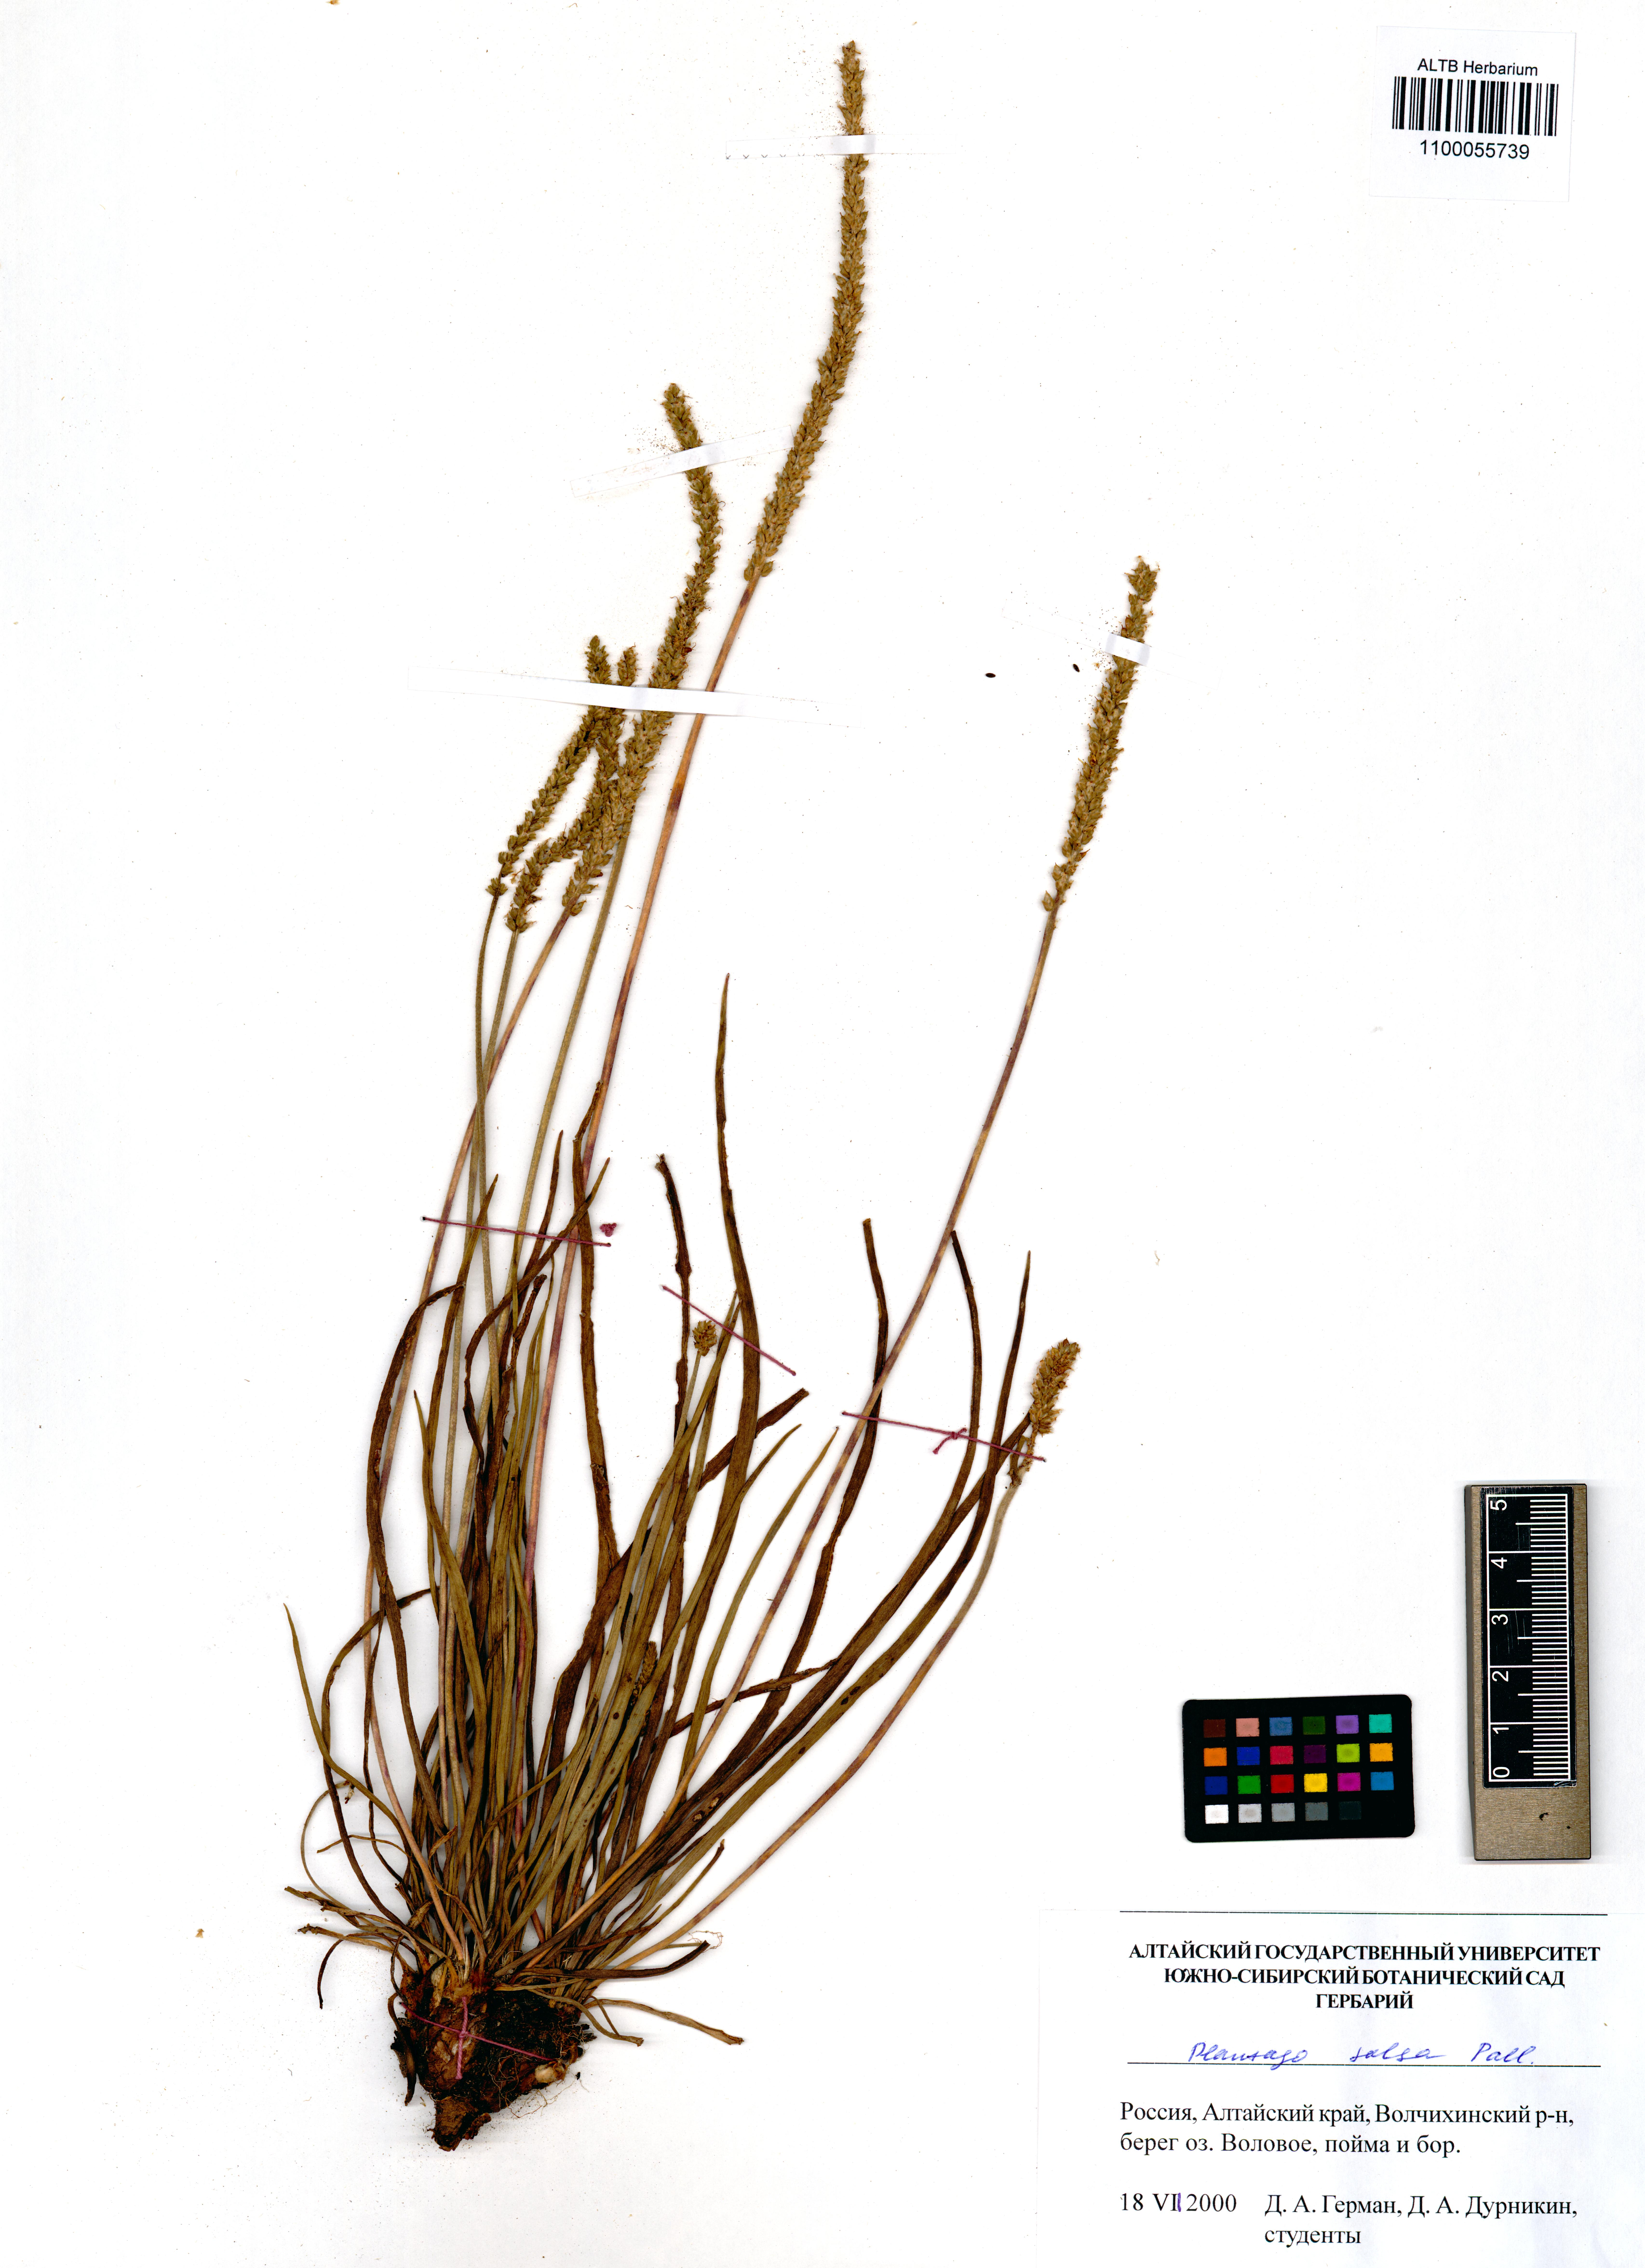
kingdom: Plantae
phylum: Tracheophyta
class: Magnoliopsida
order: Lamiales
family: Plantaginaceae
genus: Plantago
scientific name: Plantago salsa
